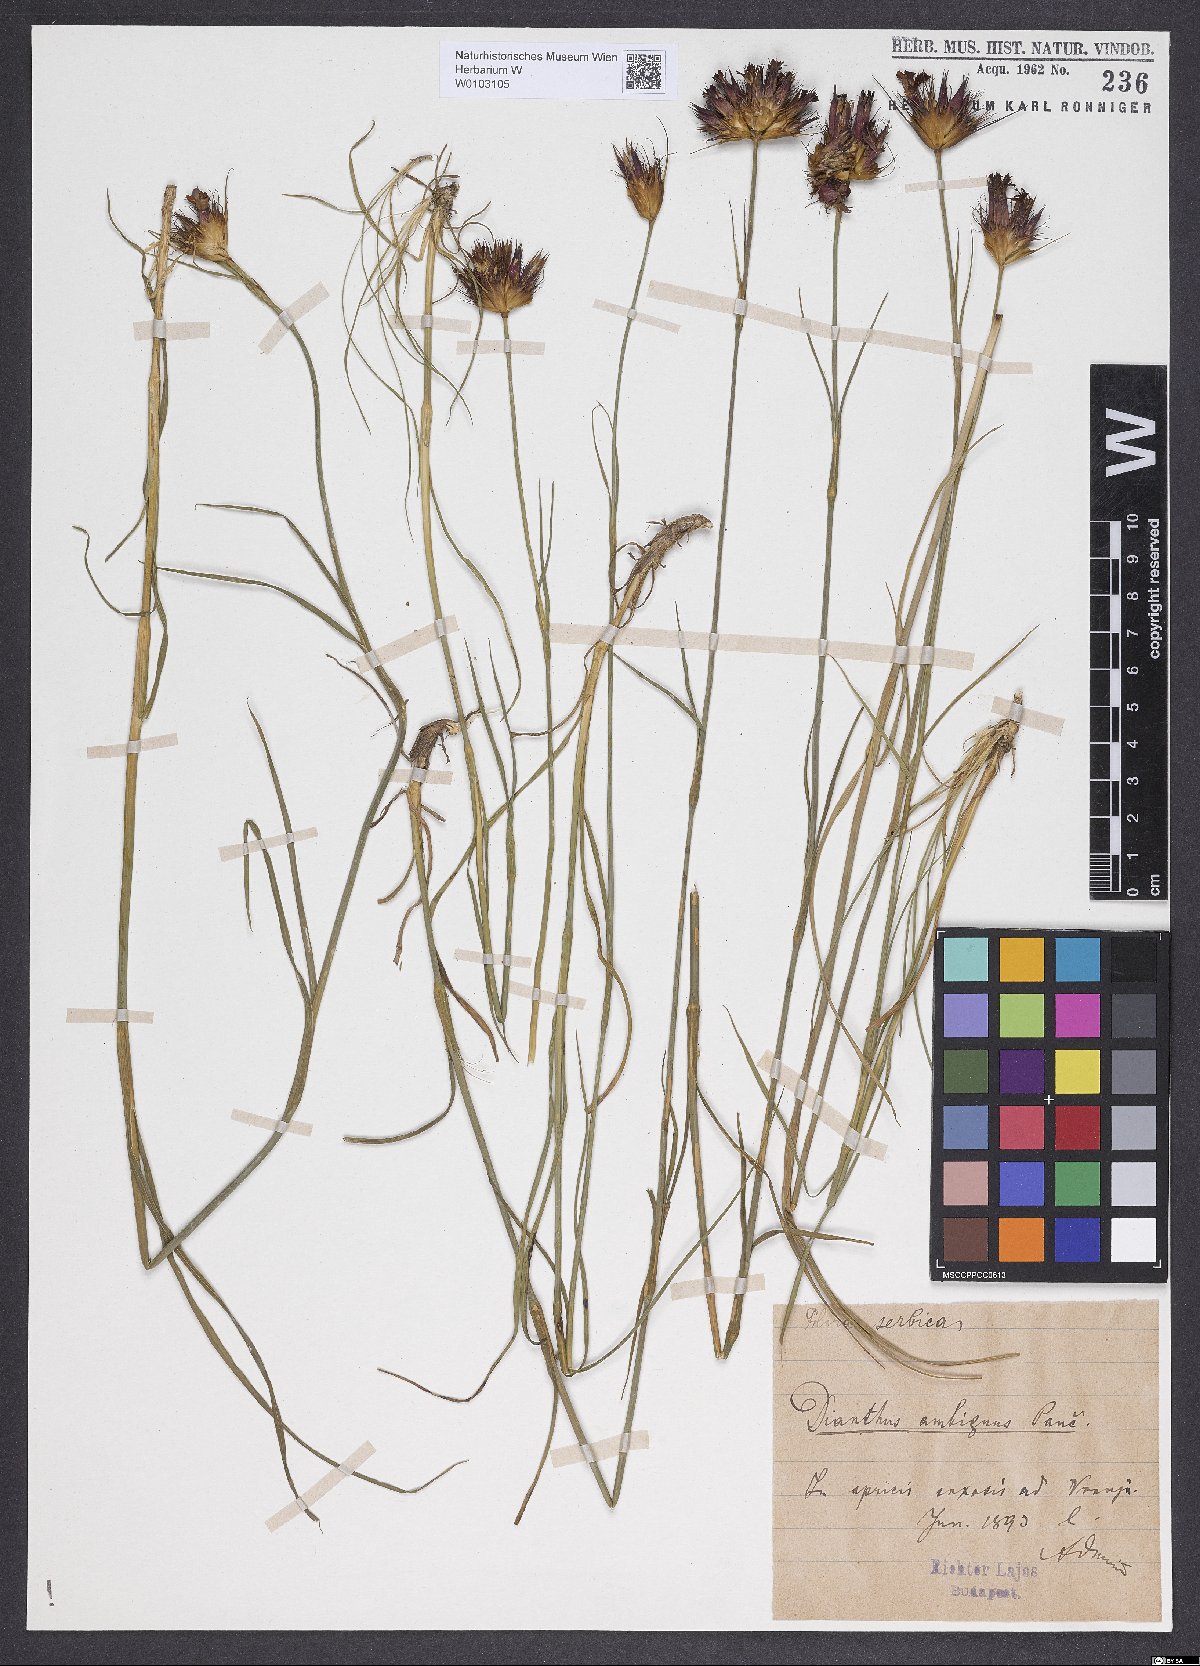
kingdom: Plantae
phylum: Tracheophyta
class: Magnoliopsida
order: Caryophyllales
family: Caryophyllaceae
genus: Dianthus
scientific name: Dianthus cruentus
